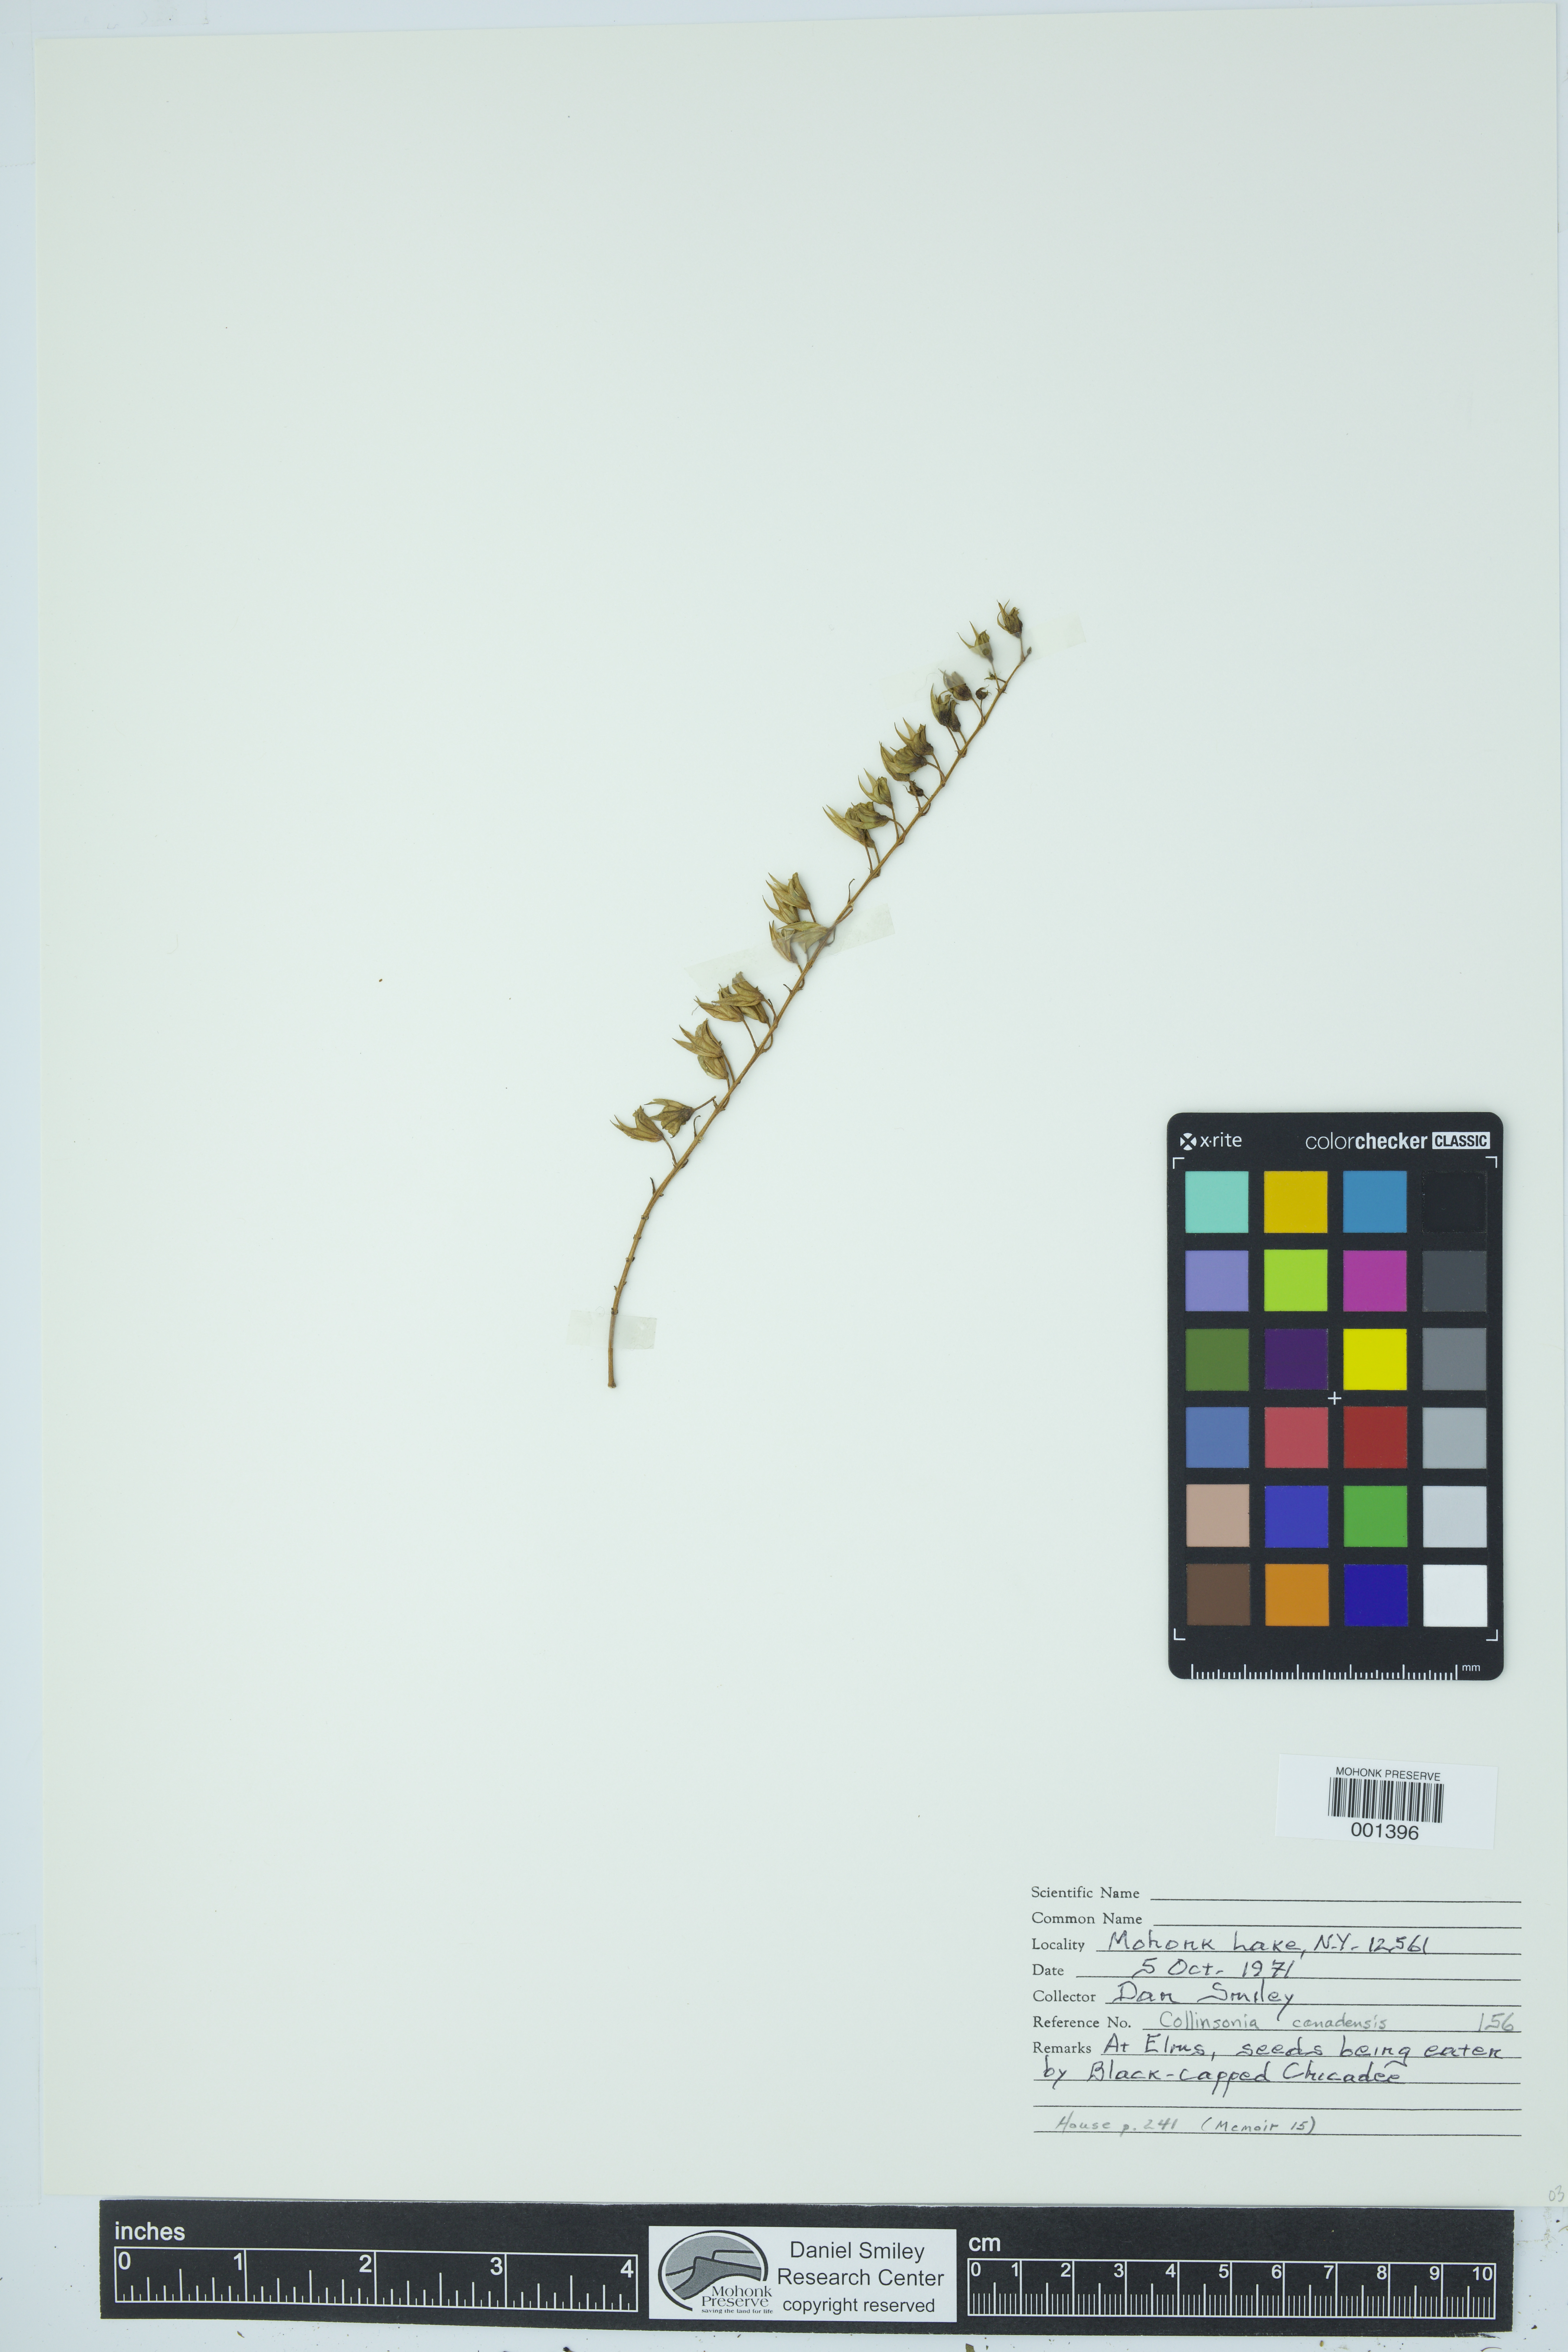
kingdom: Plantae
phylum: Tracheophyta
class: Magnoliopsida
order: Lamiales
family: Lamiaceae
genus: Collinsonia
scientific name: Collinsonia canadensis
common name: Northern horsebalm
